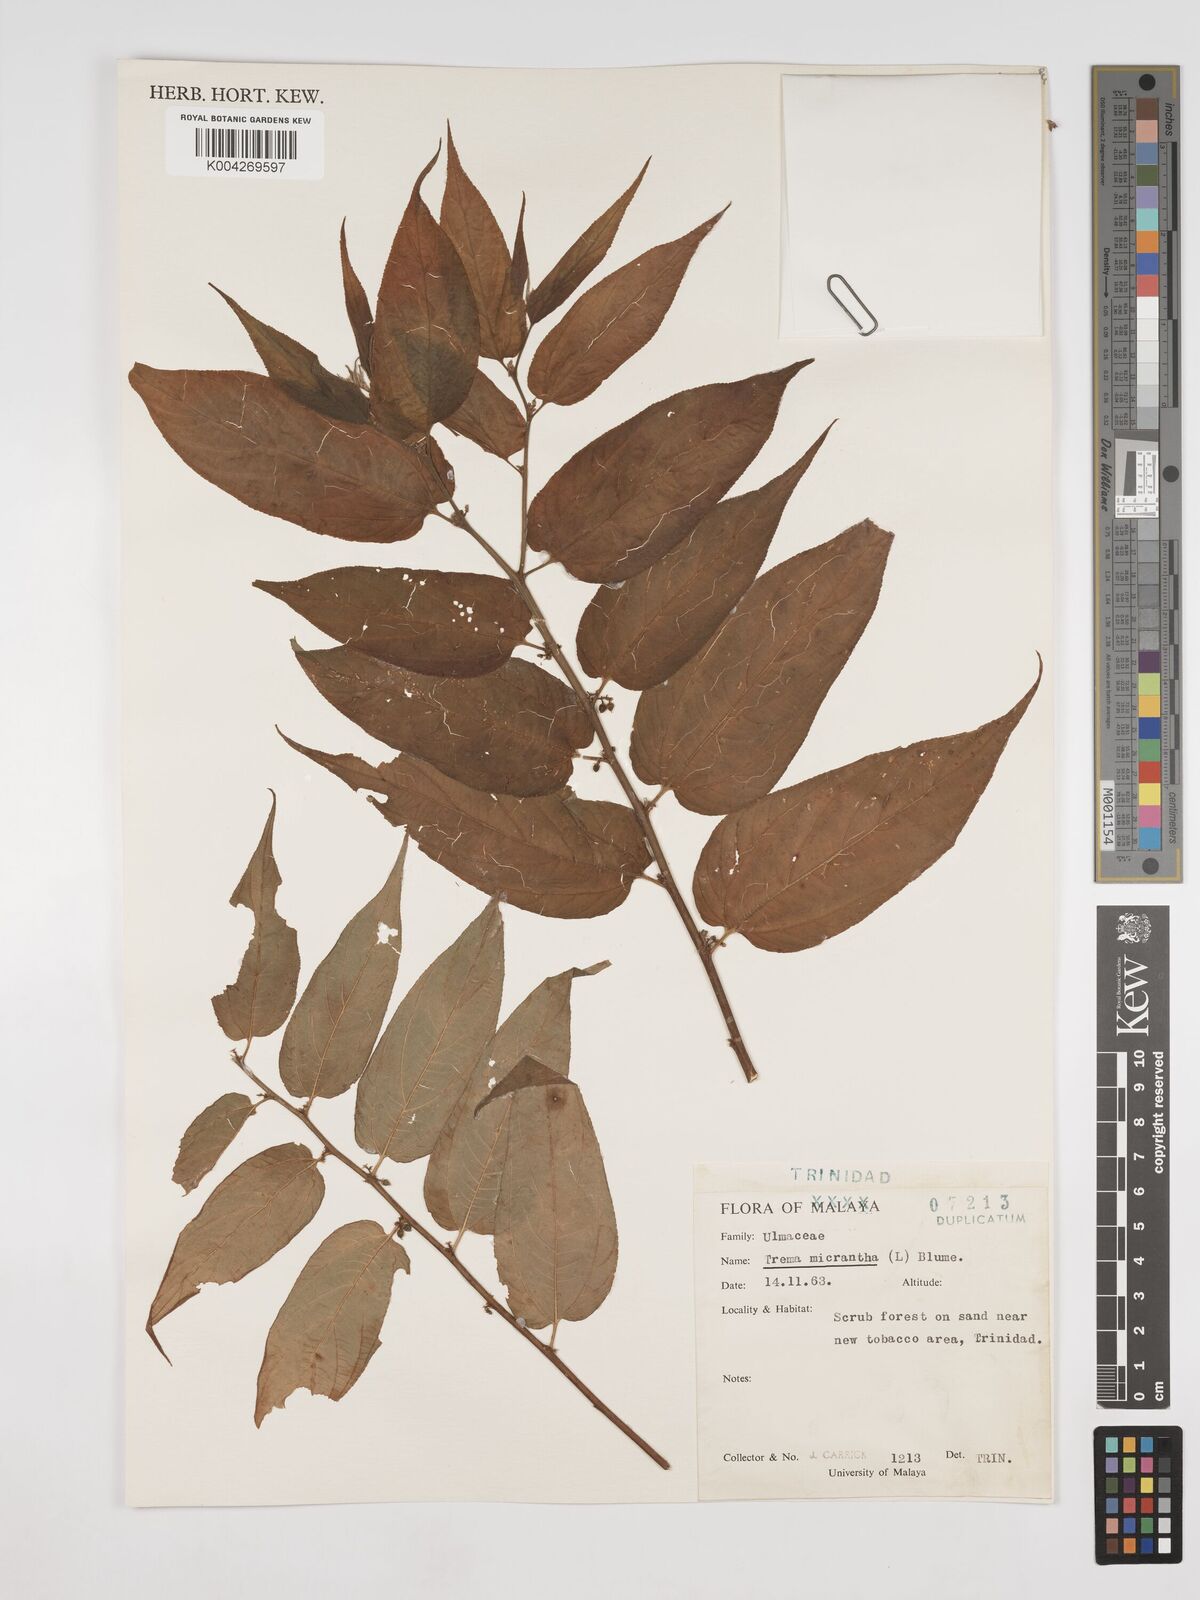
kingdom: Plantae
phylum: Tracheophyta
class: Magnoliopsida
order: Rosales
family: Cannabaceae
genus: Trema
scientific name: Trema micranthum
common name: Jamaican nettletree
